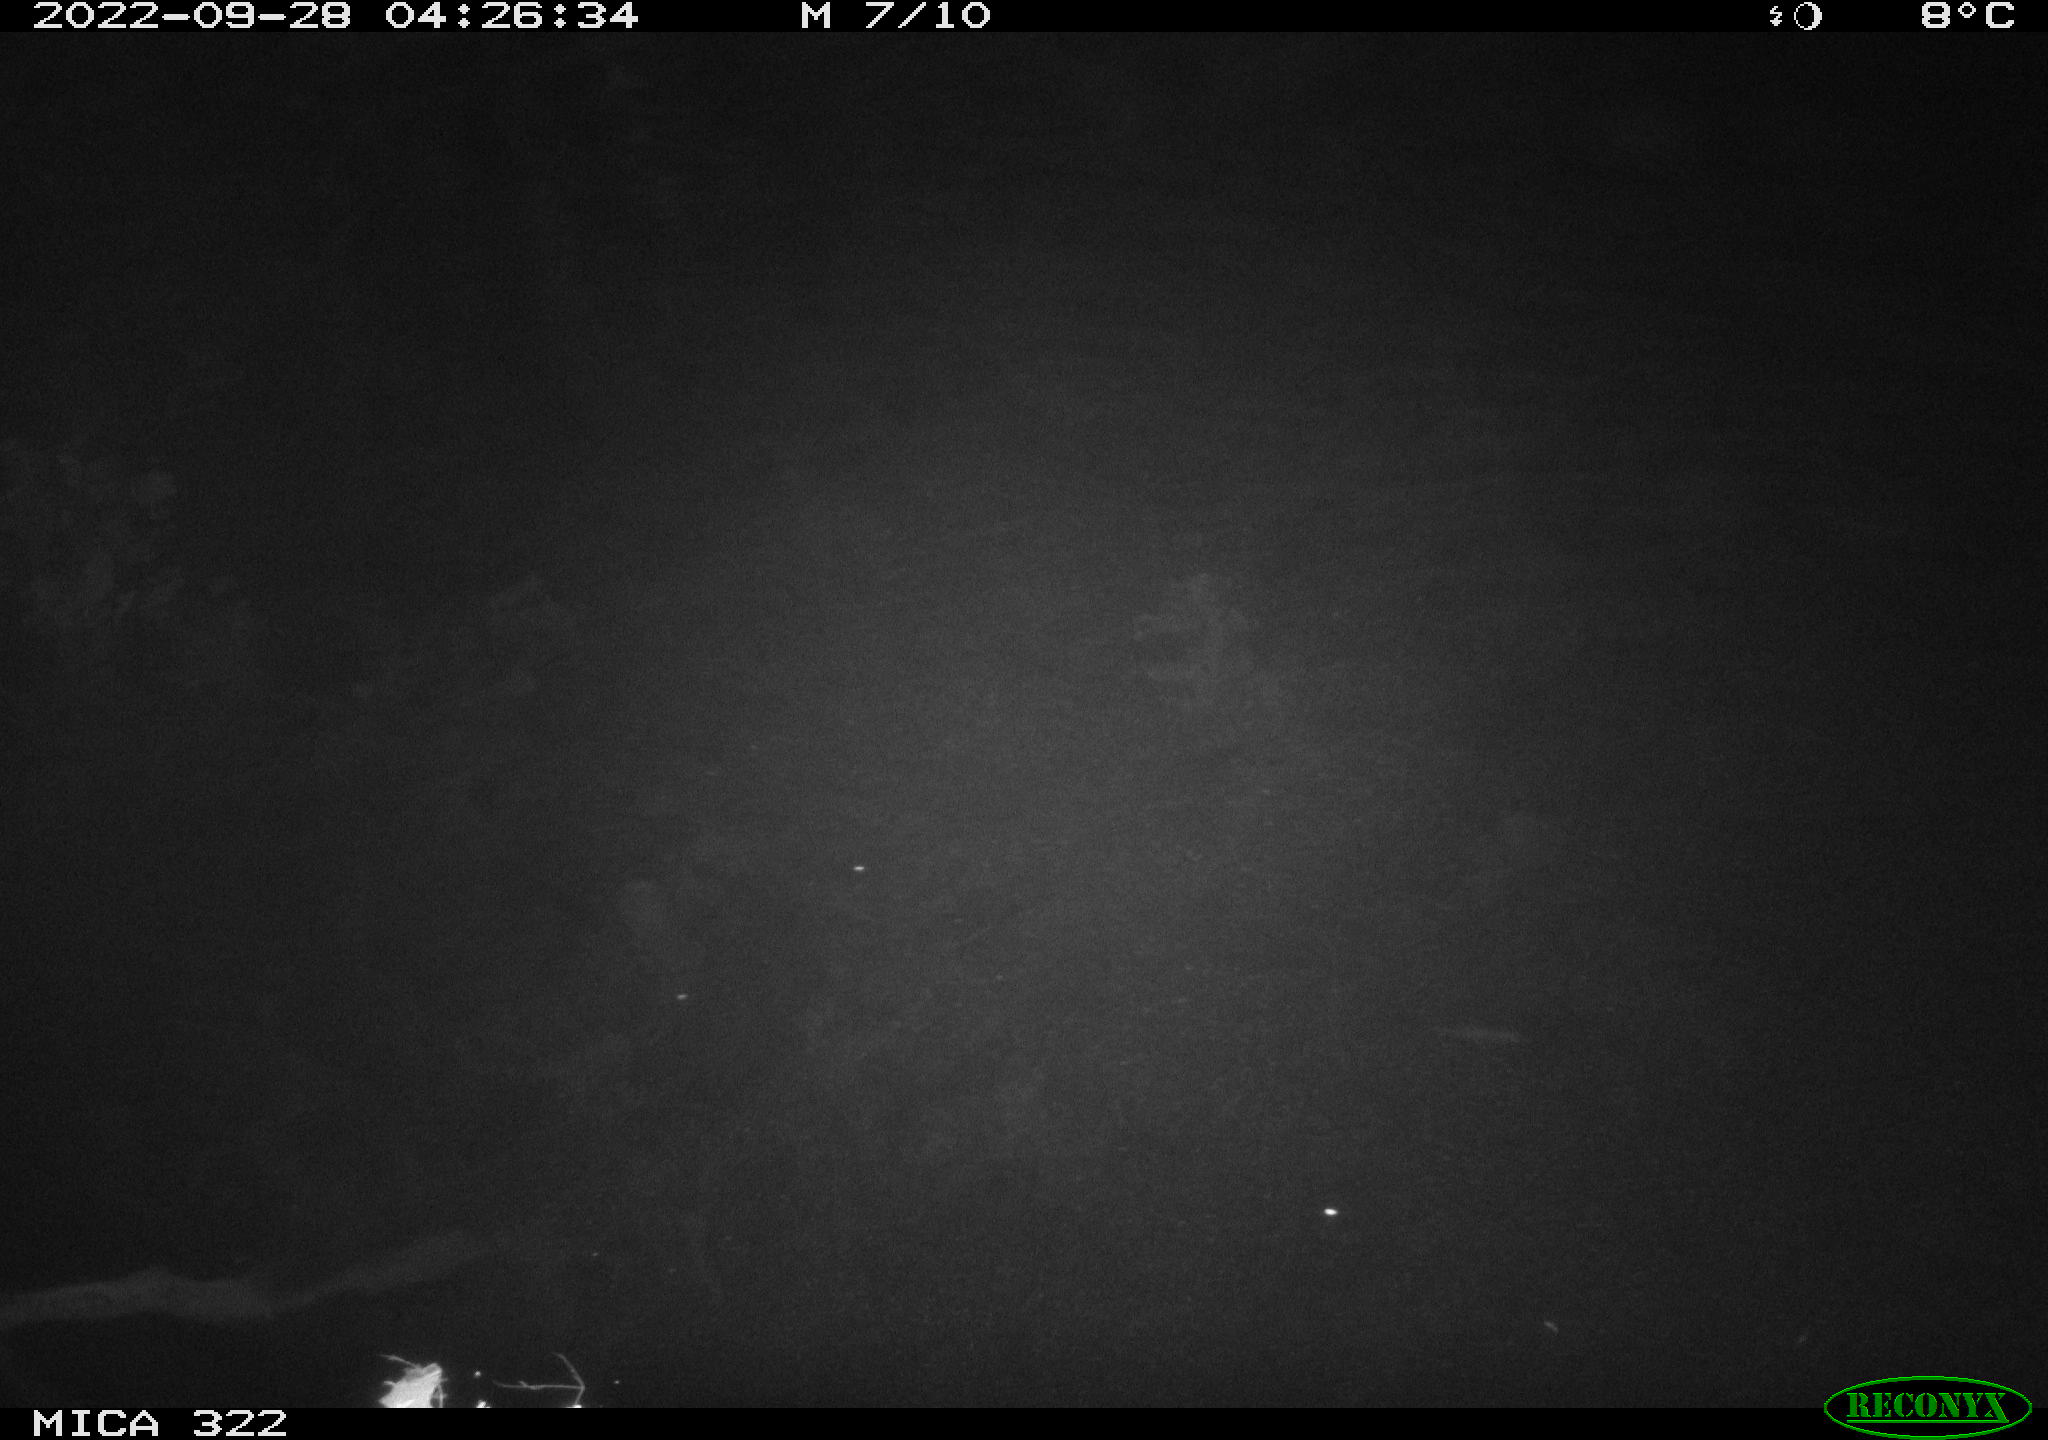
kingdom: Animalia
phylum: Chordata
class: Mammalia
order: Rodentia
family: Cricetidae
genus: Ondatra
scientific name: Ondatra zibethicus
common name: Muskrat
